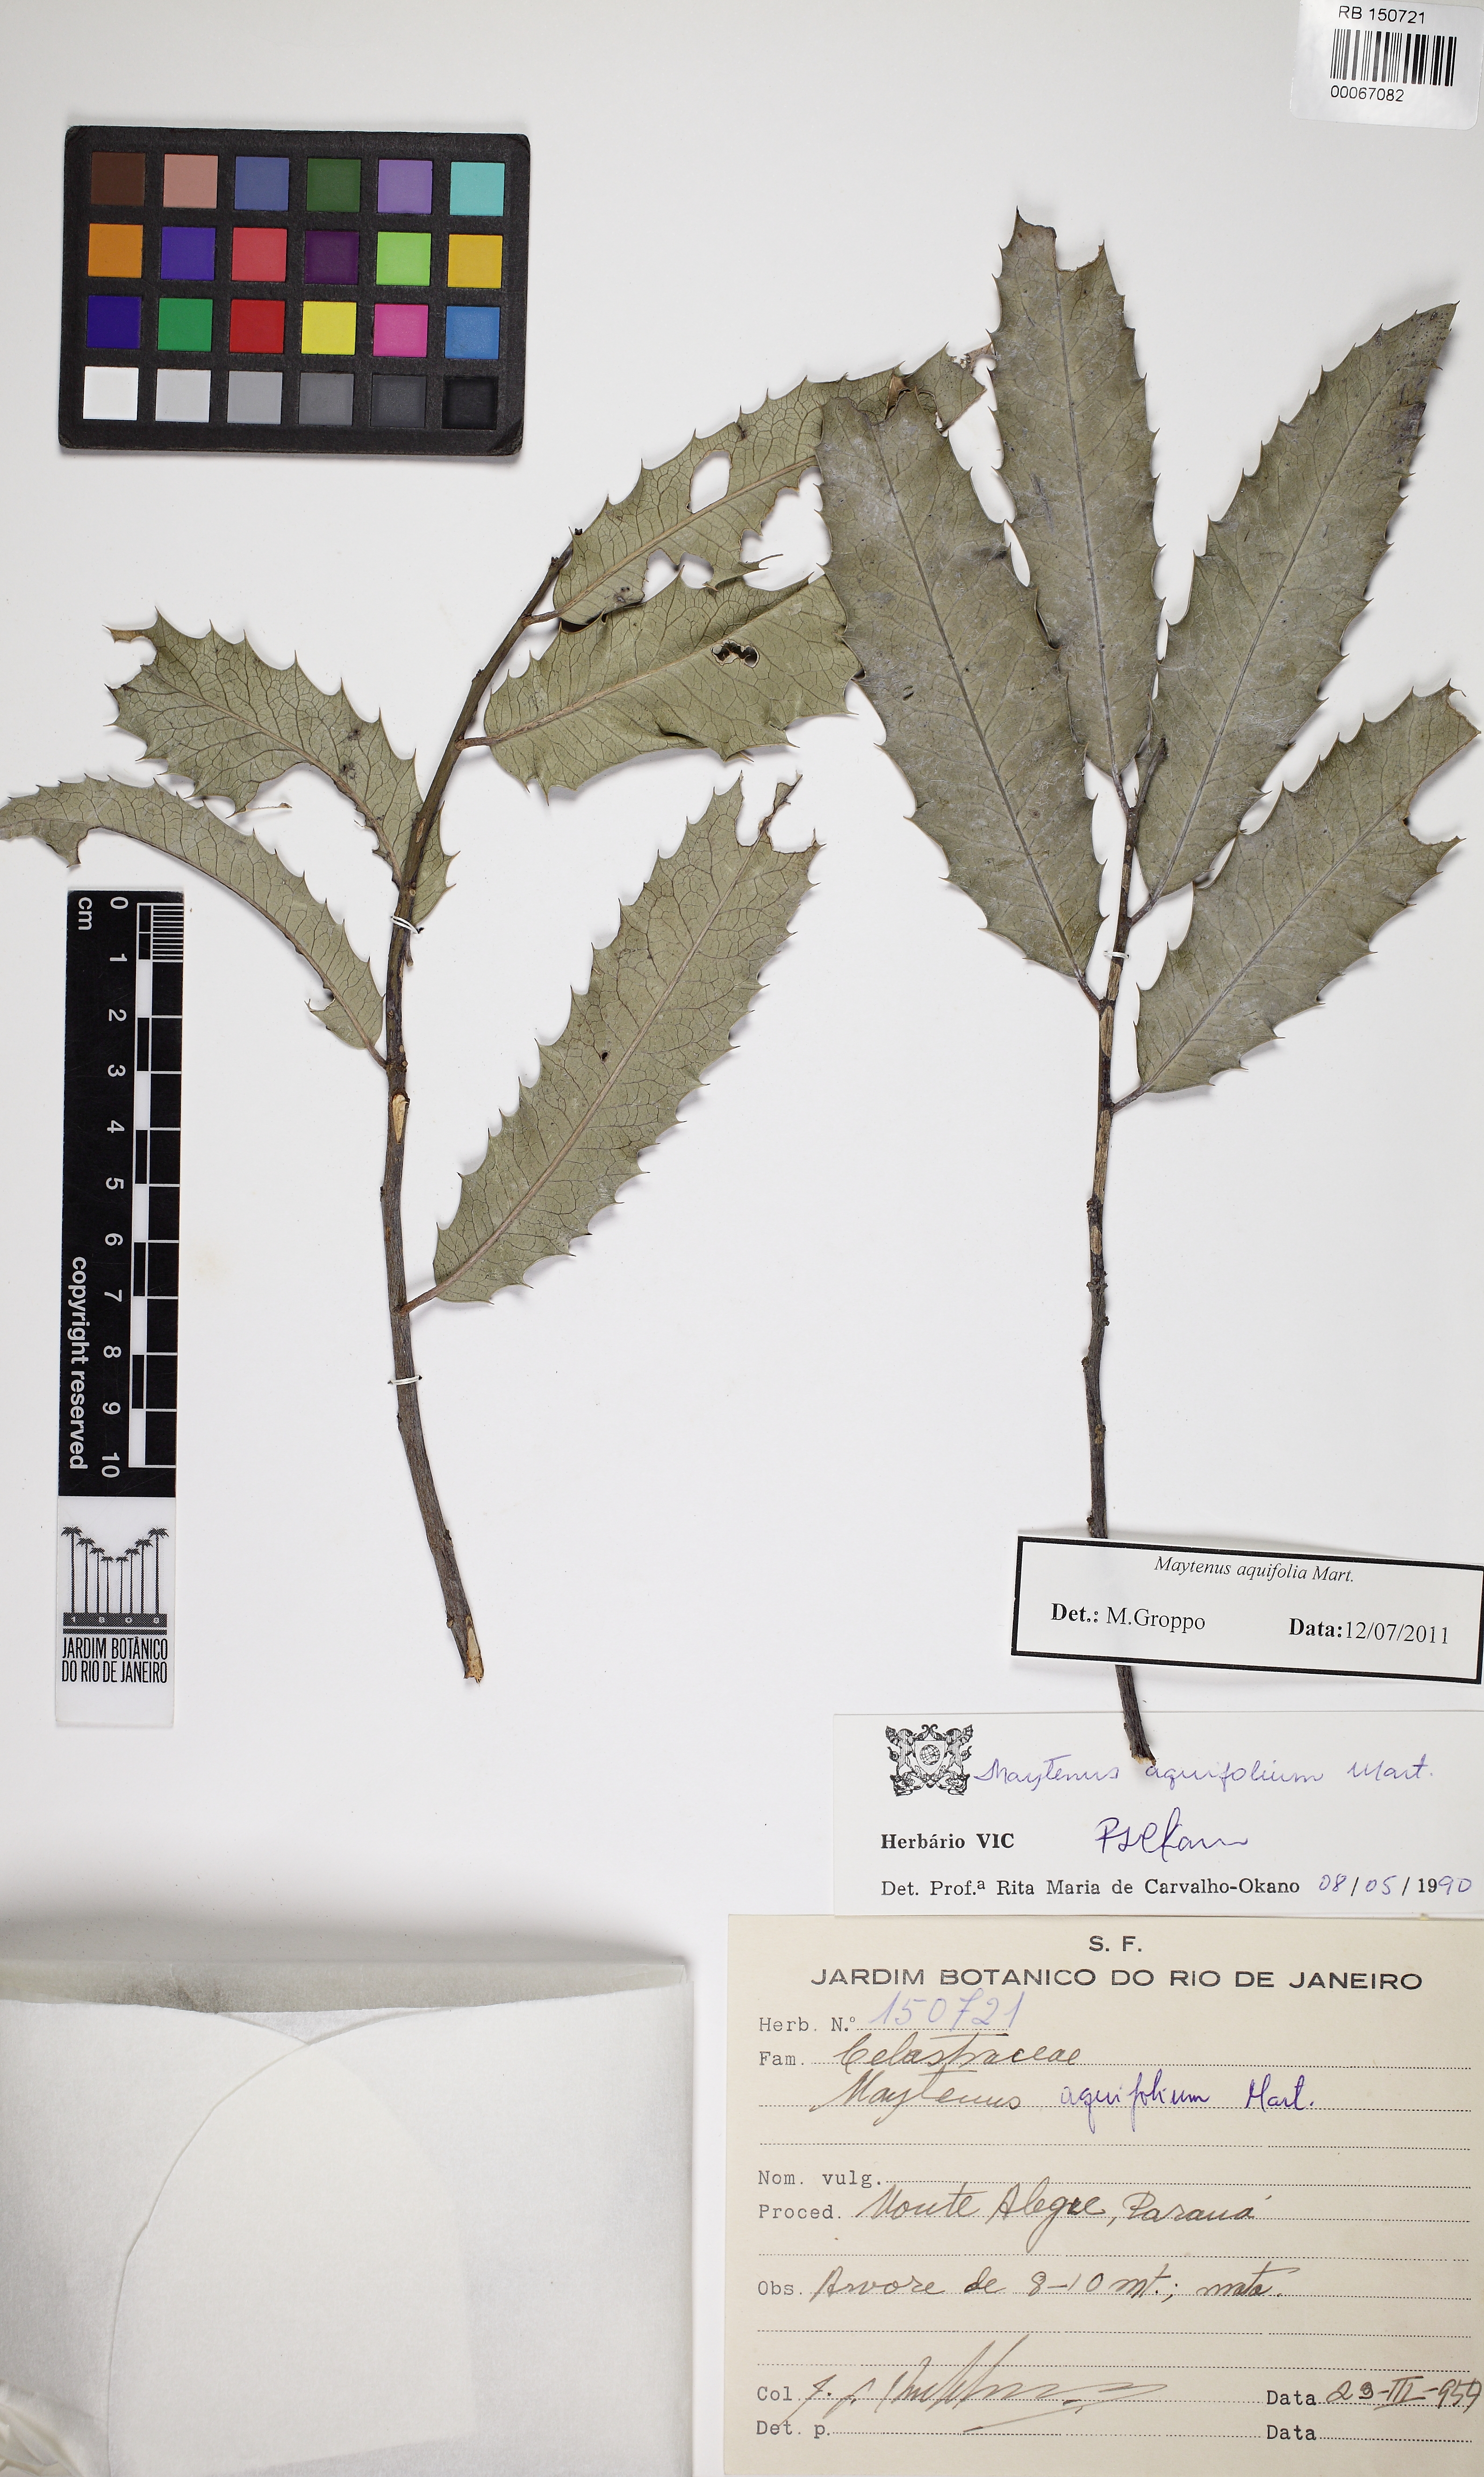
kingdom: Plantae
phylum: Tracheophyta
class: Magnoliopsida
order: Celastrales
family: Celastraceae
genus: Monteverdia
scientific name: Monteverdia aquifolium
